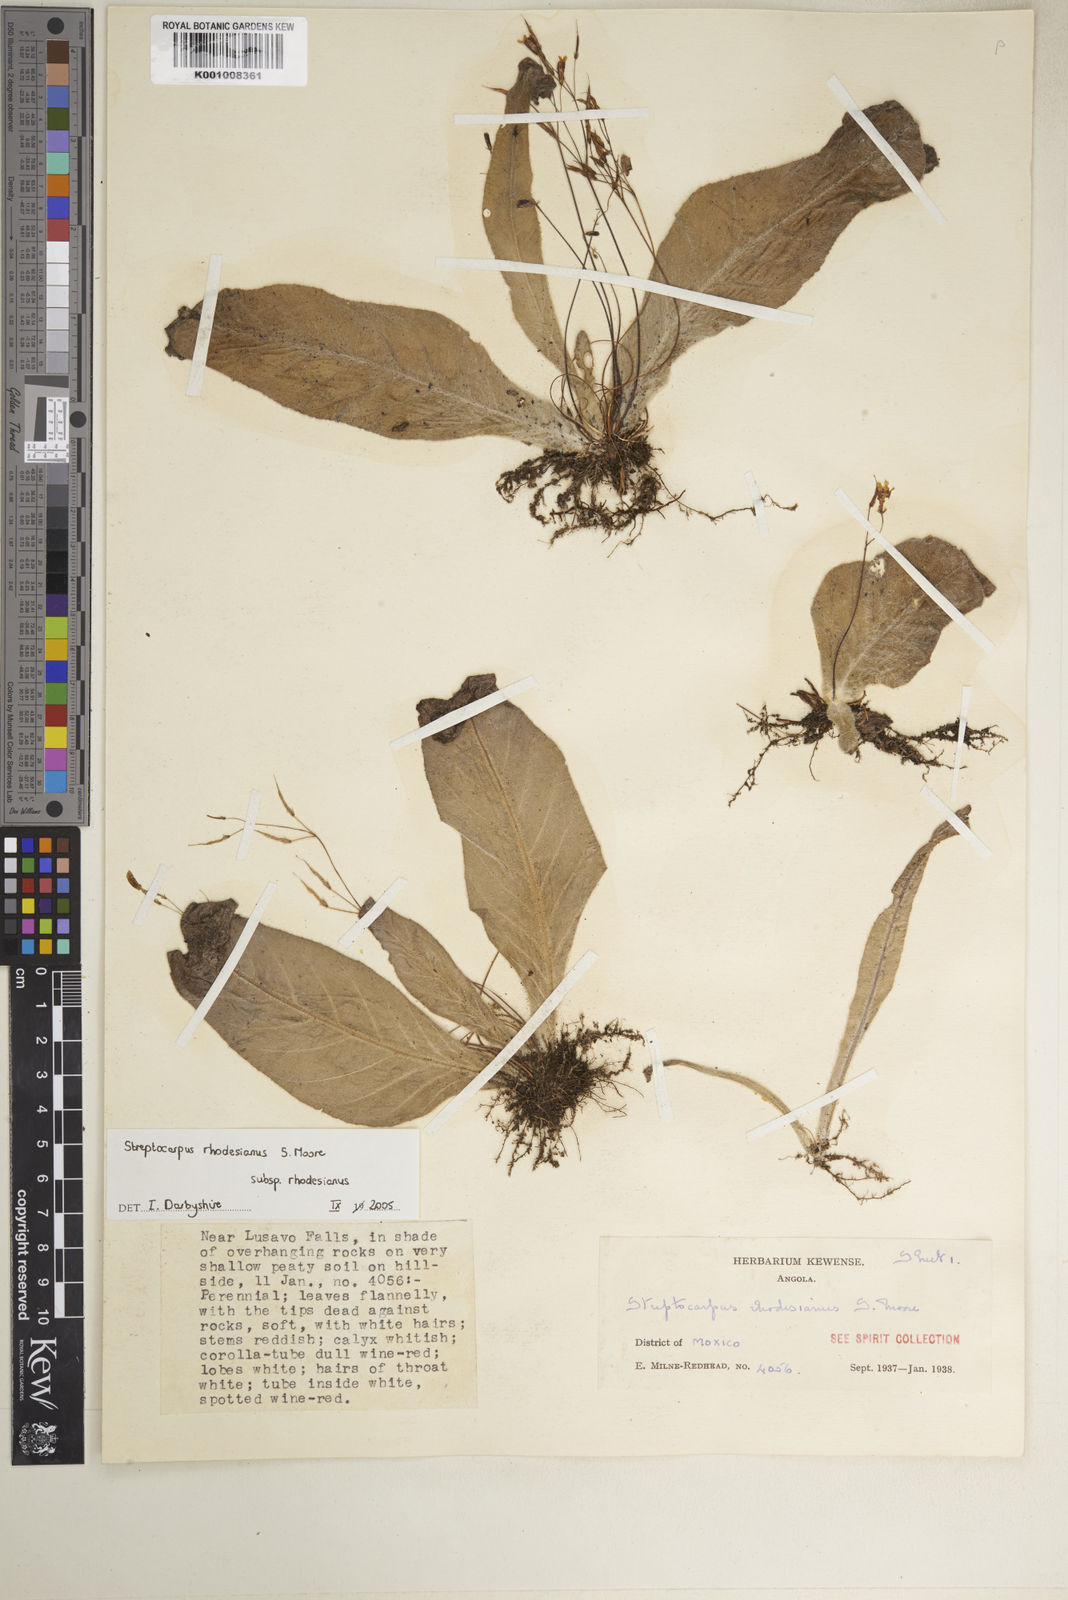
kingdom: Plantae
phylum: Tracheophyta
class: Magnoliopsida
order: Lamiales
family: Gesneriaceae
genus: Streptocarpus
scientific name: Streptocarpus rhodesianus
